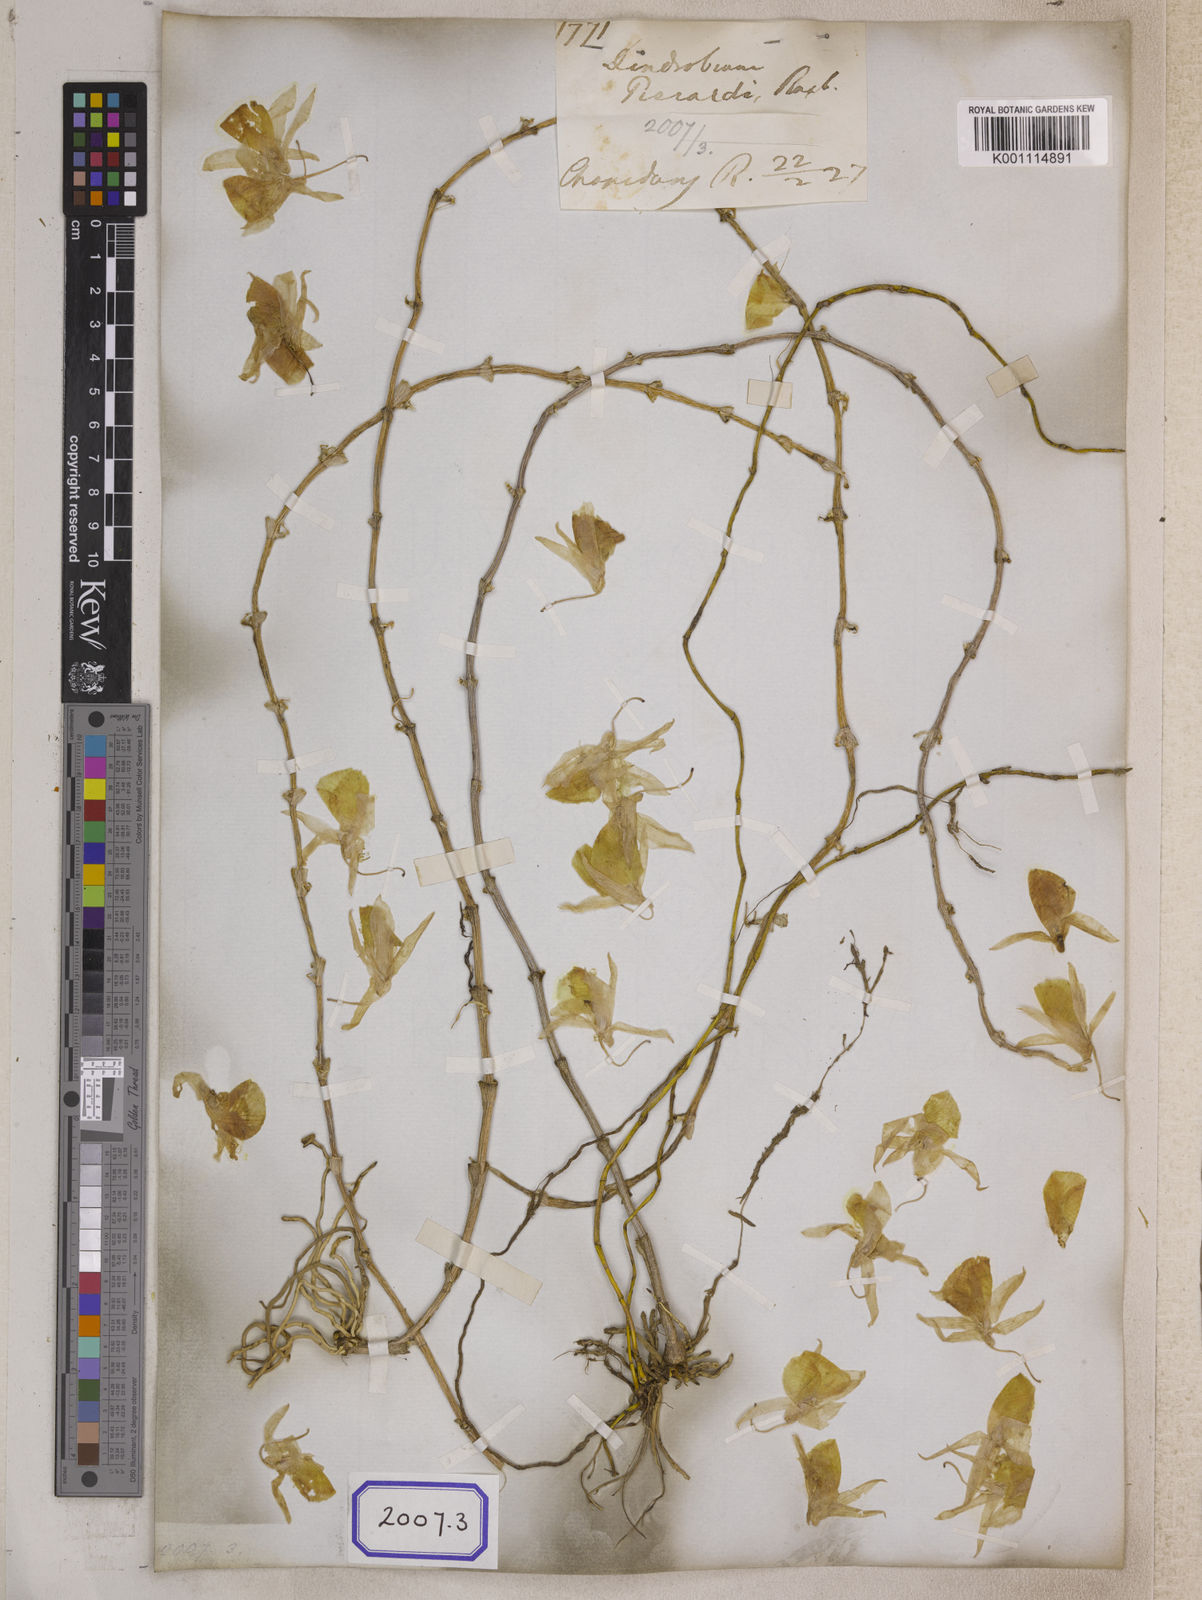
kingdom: Plantae
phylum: Tracheophyta
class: Liliopsida
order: Asparagales
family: Orchidaceae
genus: Dendrobium
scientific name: Dendrobium
